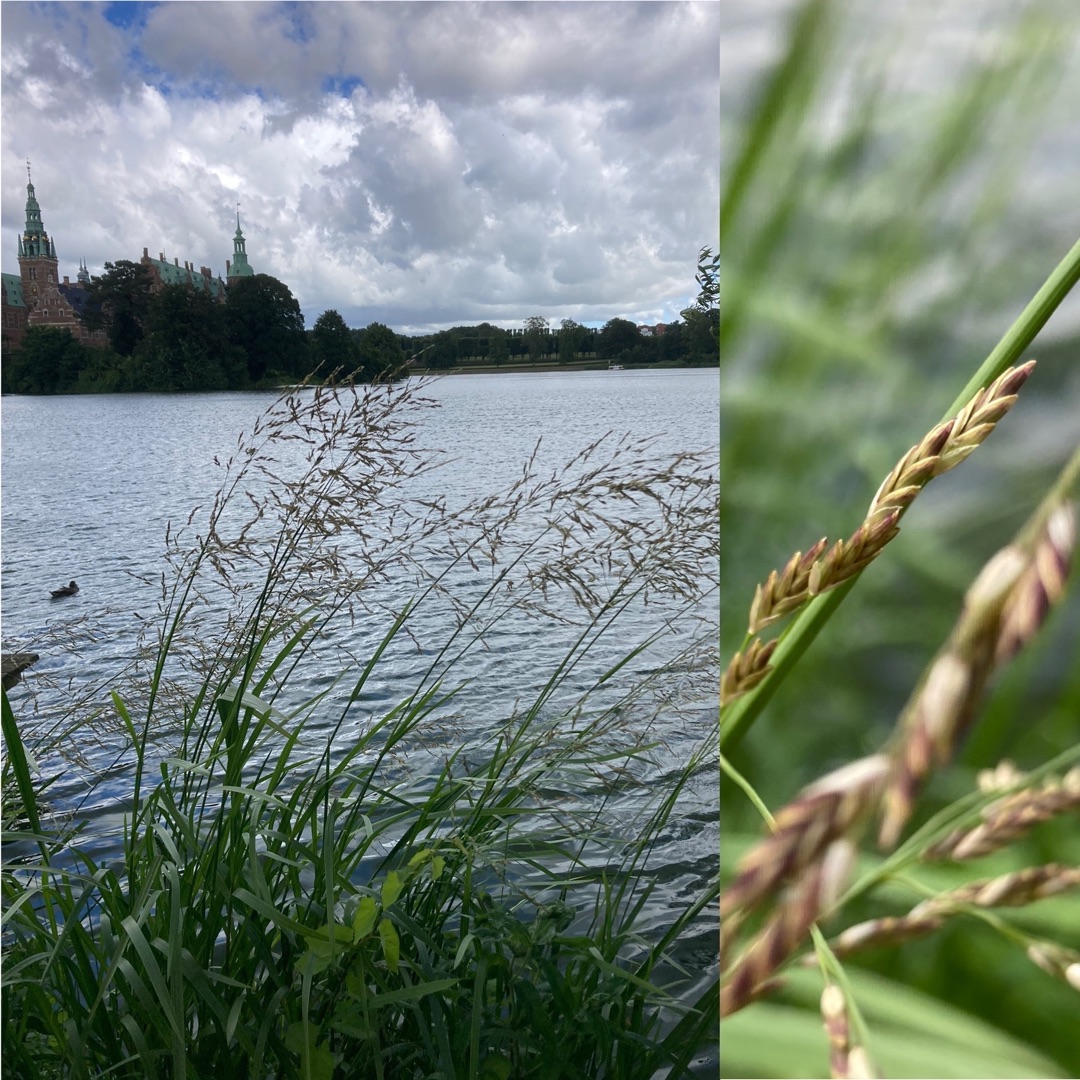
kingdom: Plantae
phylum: Tracheophyta
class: Liliopsida
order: Poales
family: Poaceae
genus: Glyceria
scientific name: Glyceria maxima
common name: Høj sødgræs
